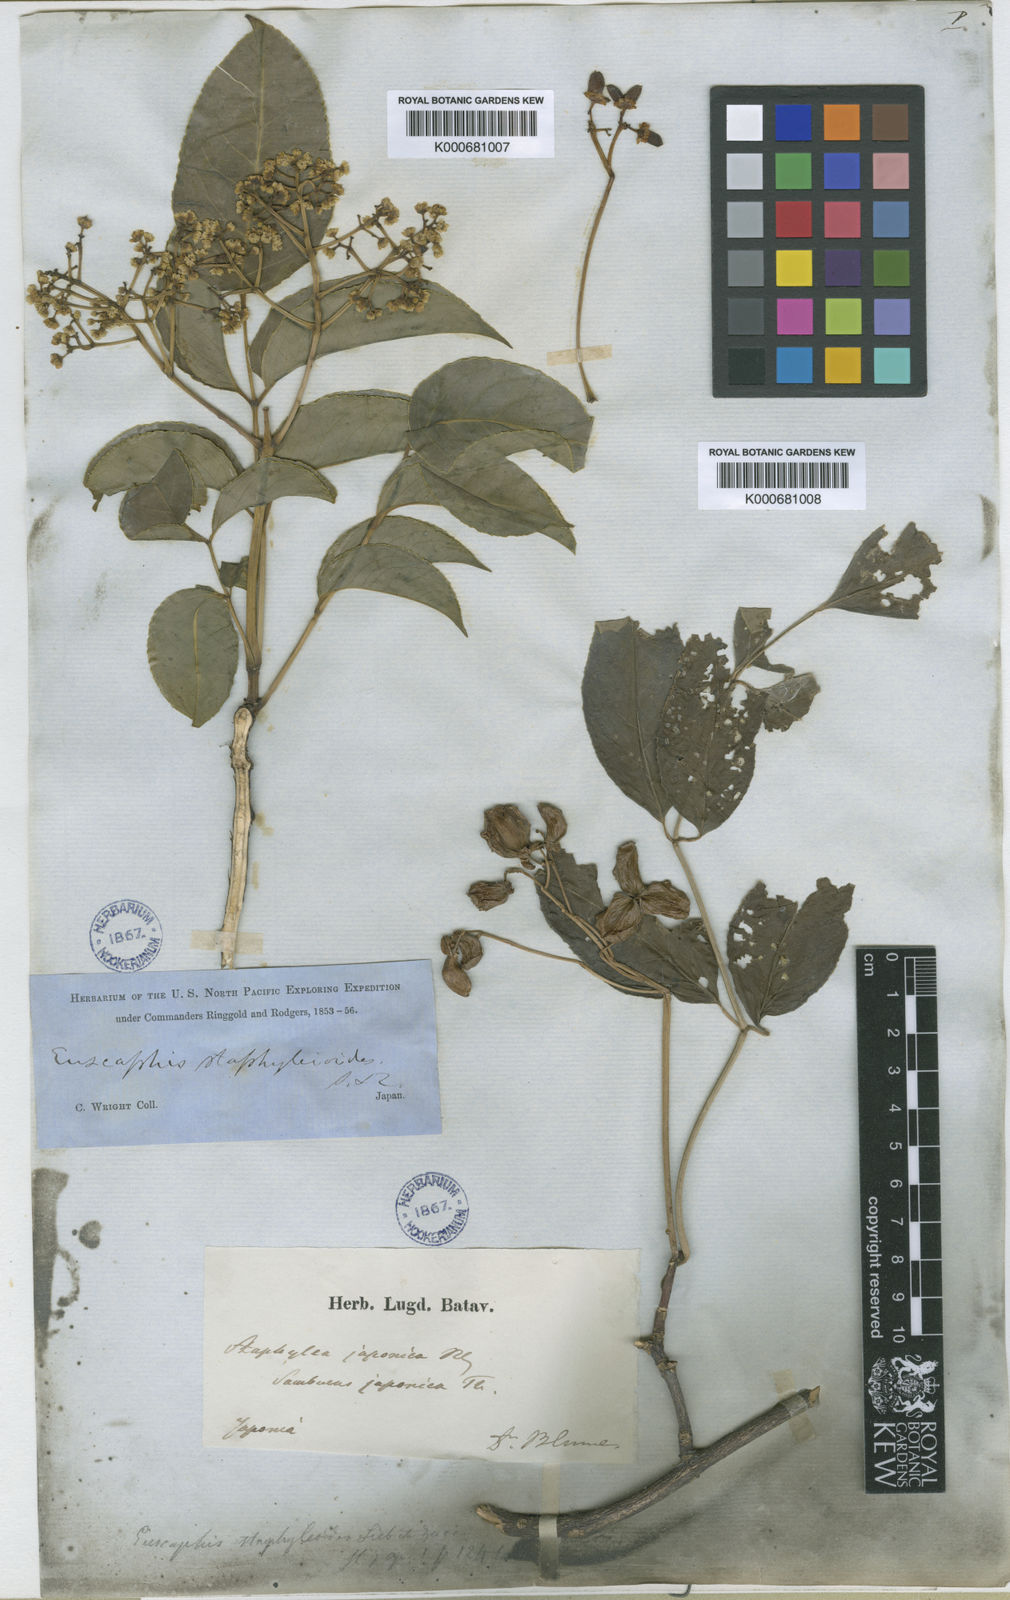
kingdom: Plantae
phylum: Tracheophyta
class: Magnoliopsida
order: Crossosomatales
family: Staphyleaceae
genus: Staphylea
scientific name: Staphylea japonica
